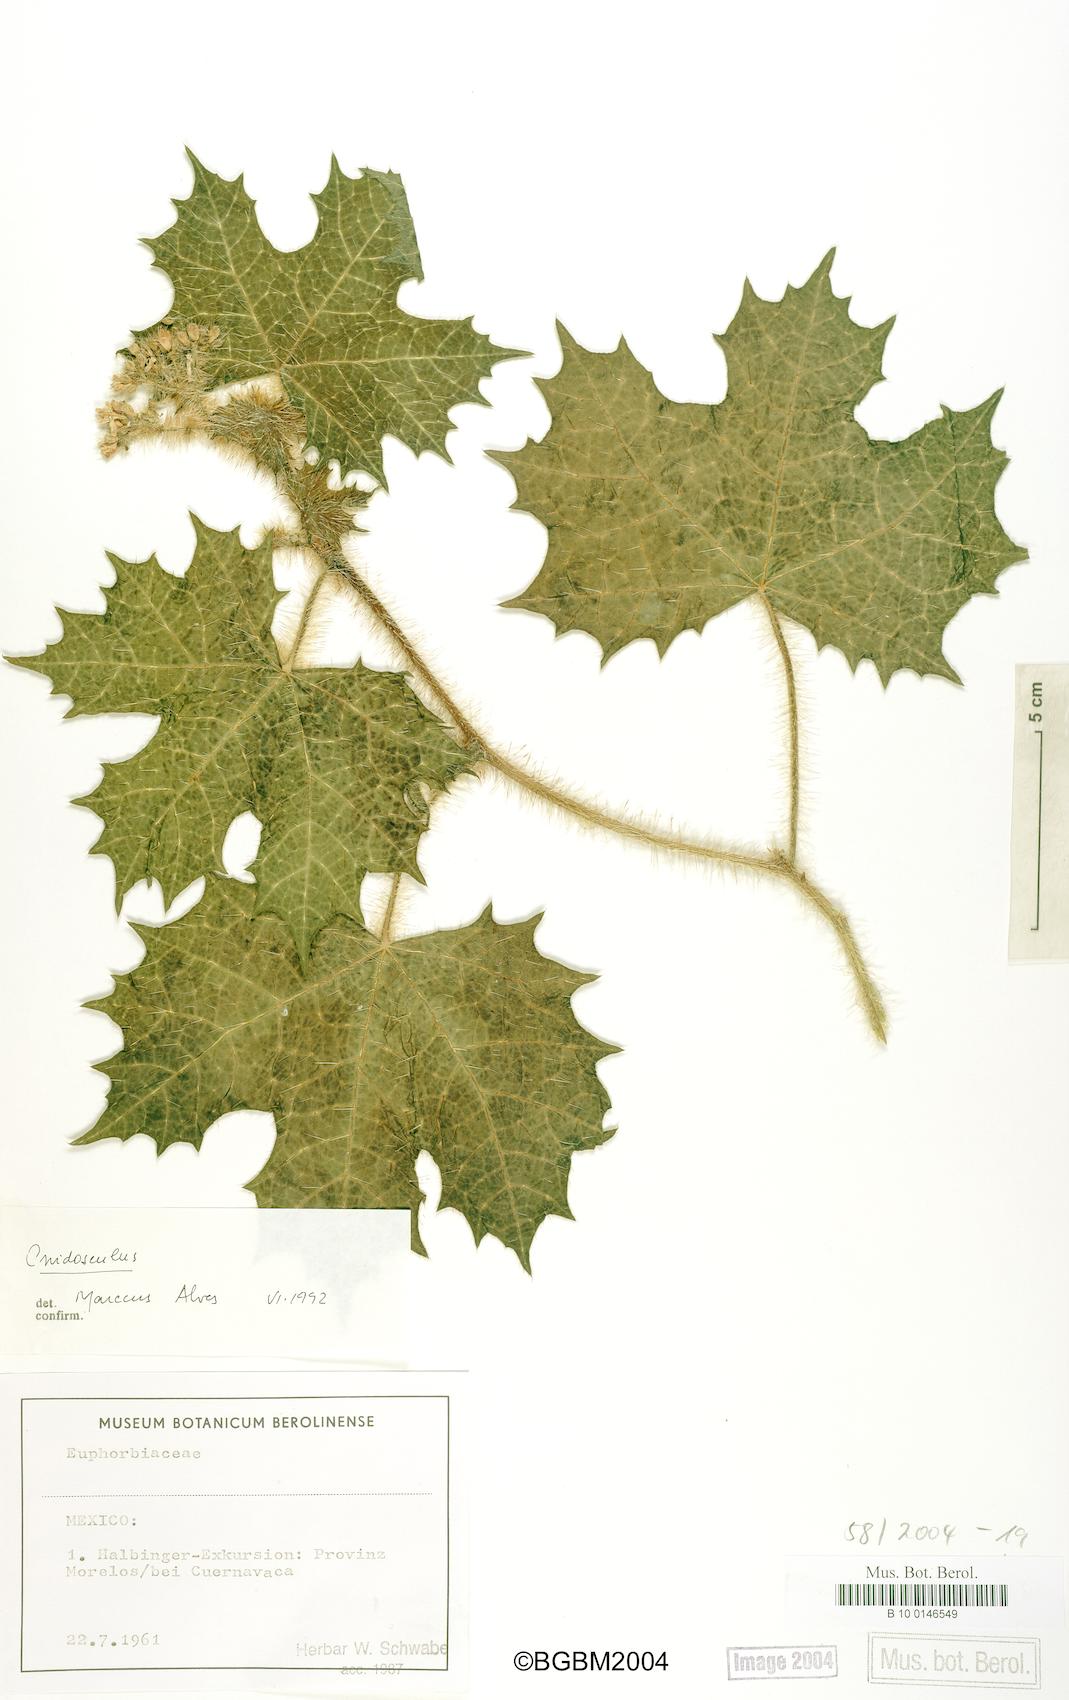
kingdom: Plantae
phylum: Tracheophyta
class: Magnoliopsida
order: Malpighiales
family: Euphorbiaceae
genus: Cnidoscolus
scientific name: Cnidoscolus
